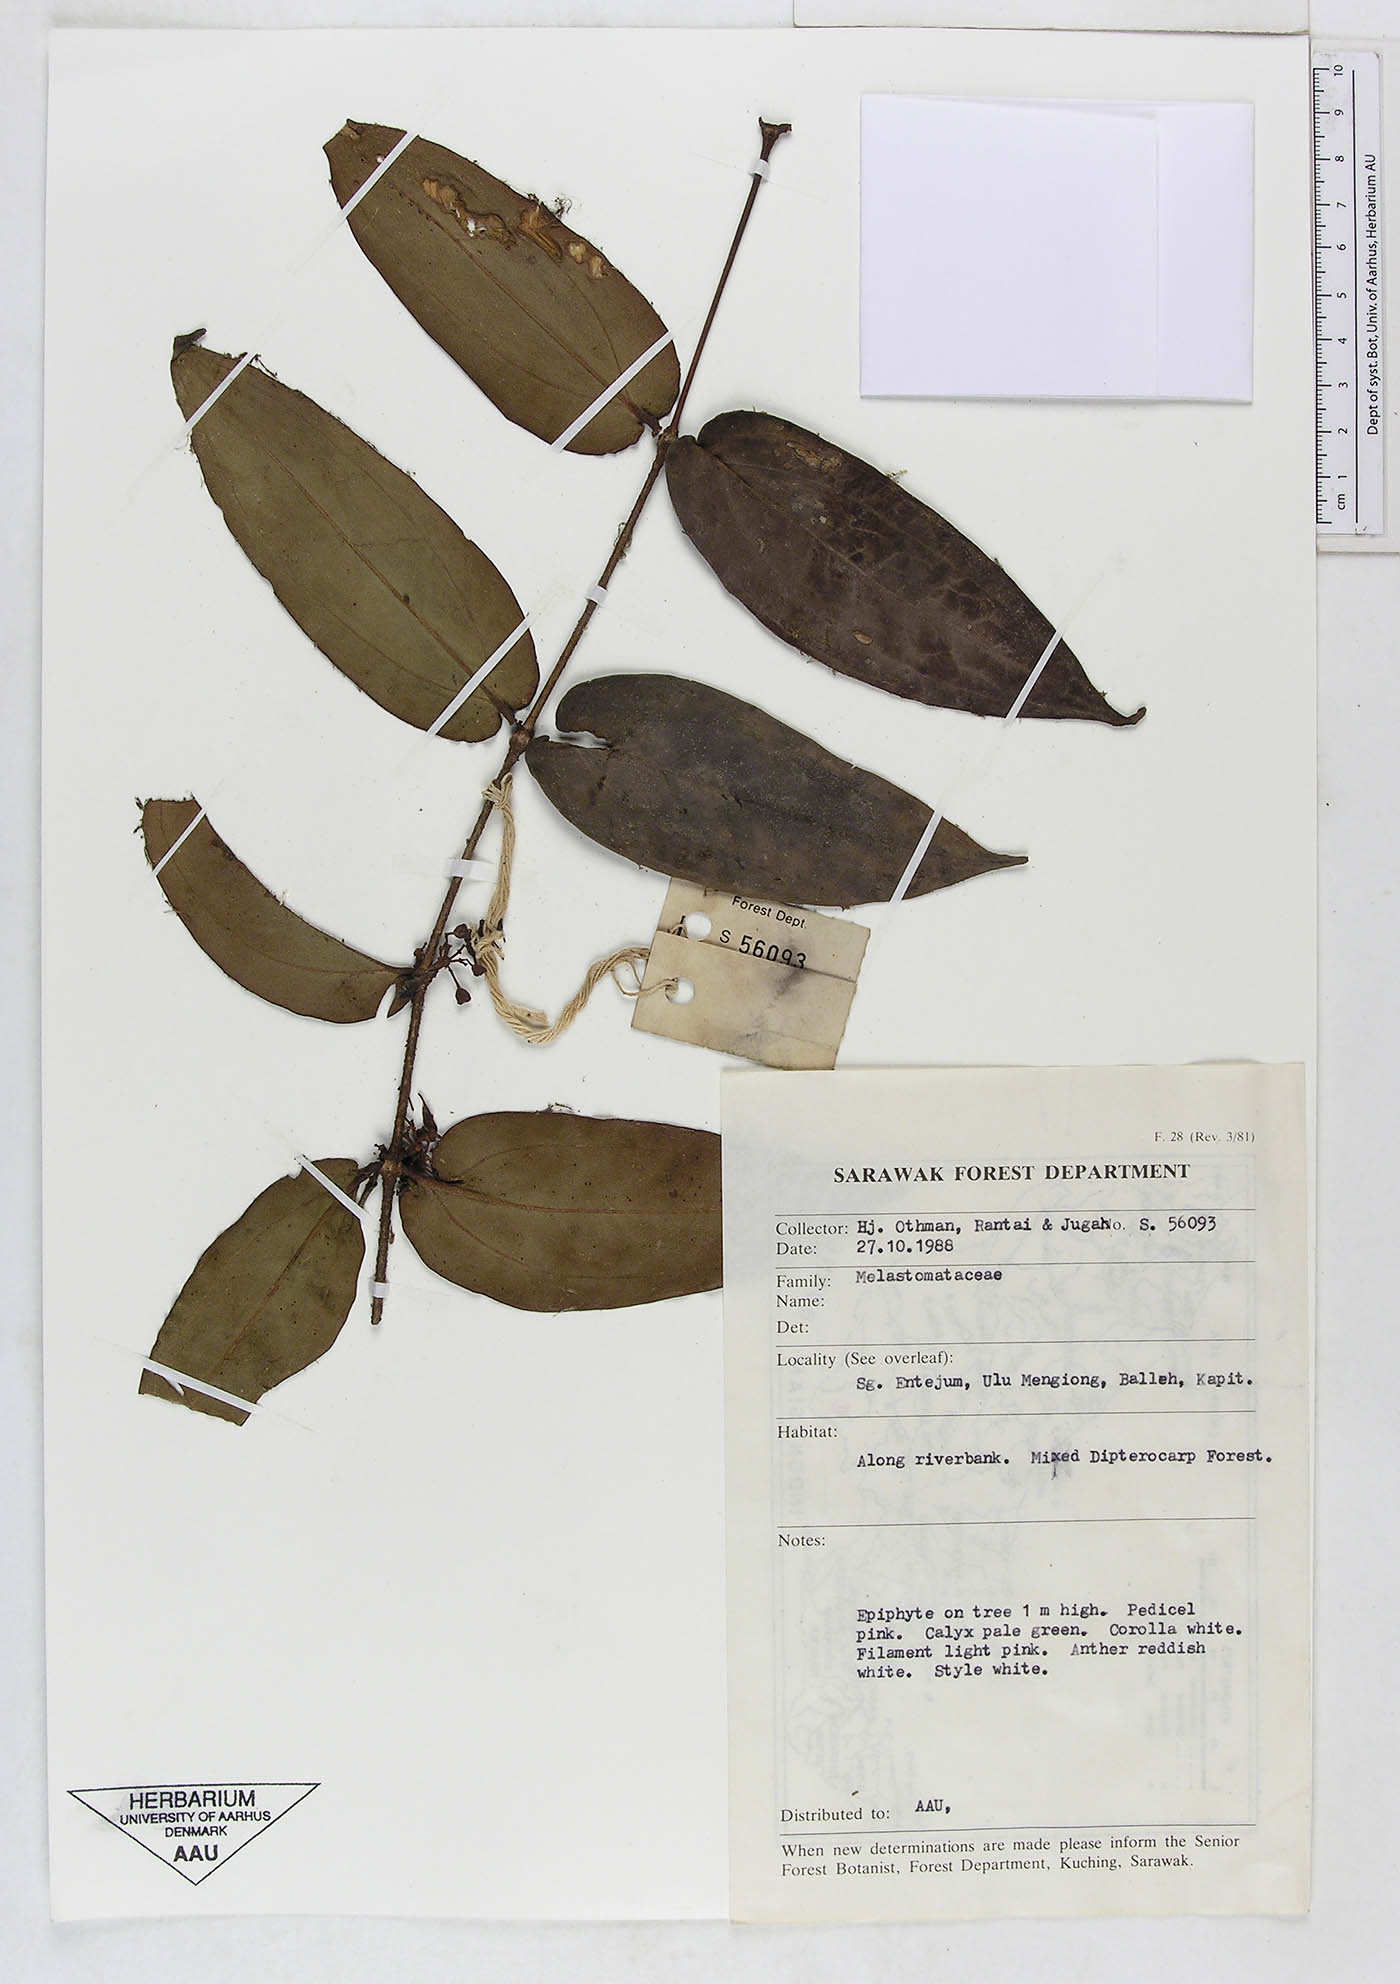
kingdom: Plantae
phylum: Tracheophyta
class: Magnoliopsida
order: Myrtales
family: Melastomataceae
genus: Memecylon
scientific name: Memecylon
